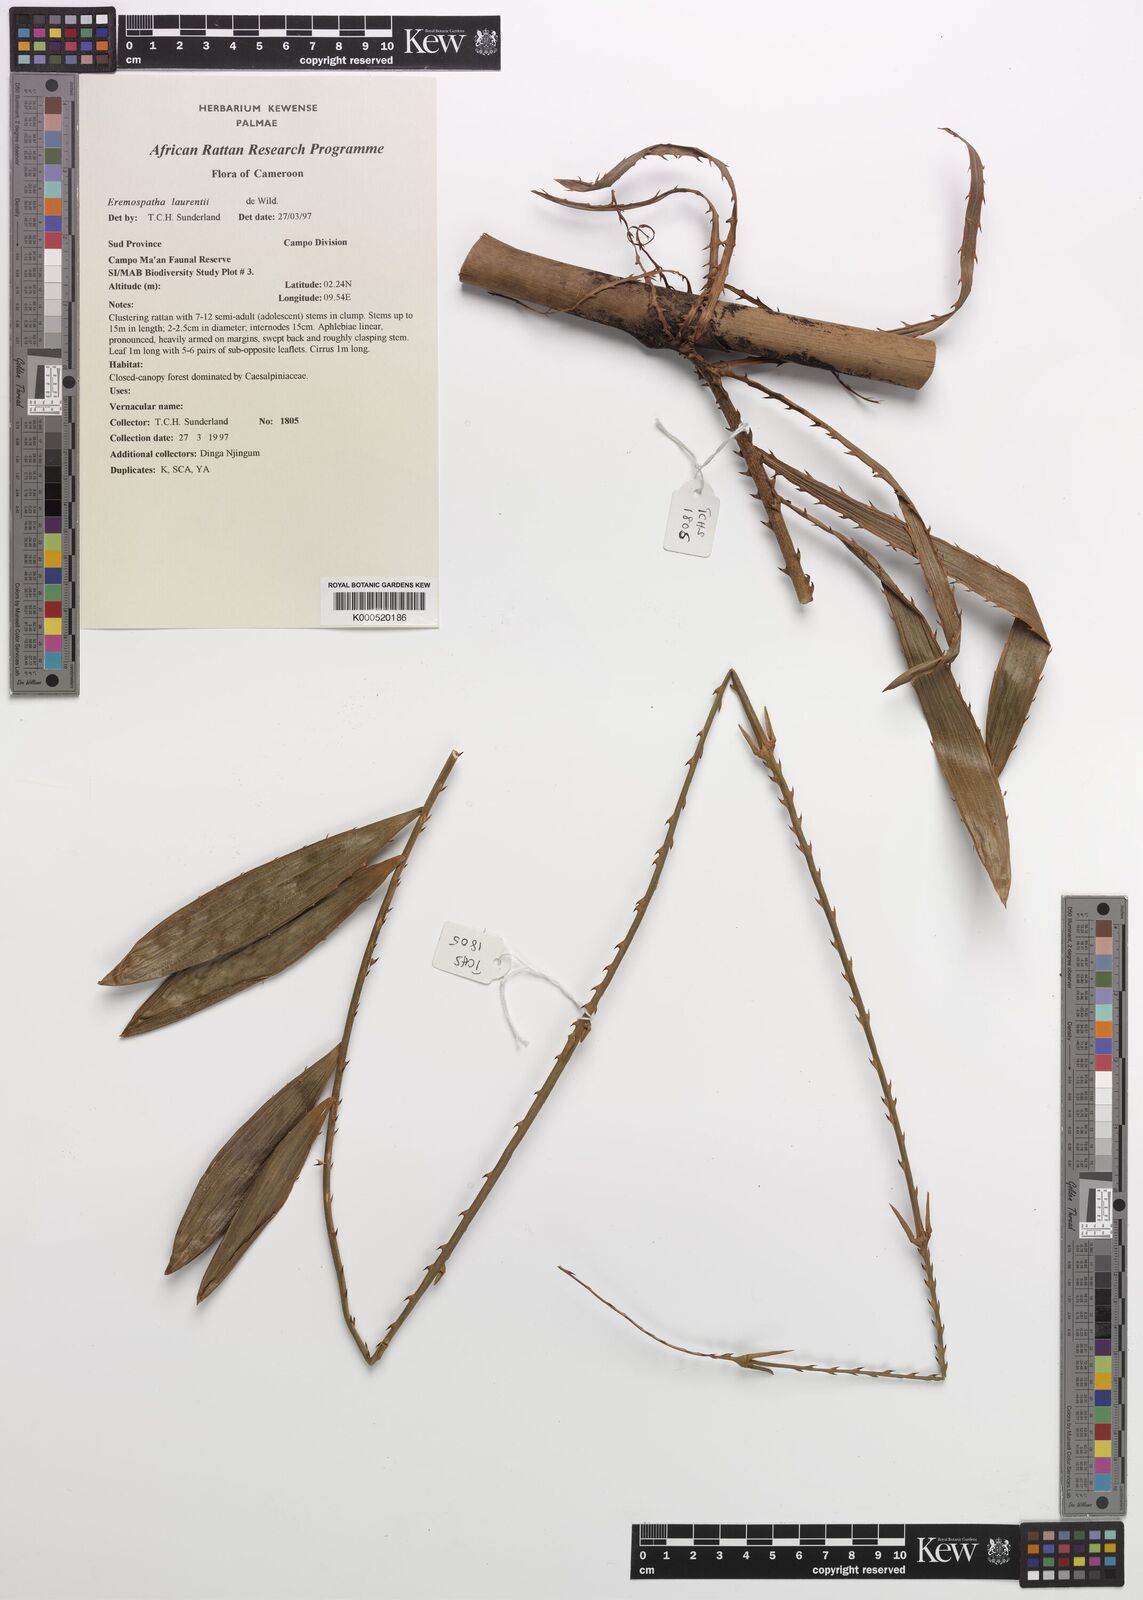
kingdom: Plantae
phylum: Tracheophyta
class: Liliopsida
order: Arecales
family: Arecaceae
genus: Eremospatha
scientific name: Eremospatha laurentii
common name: Rattan palm
